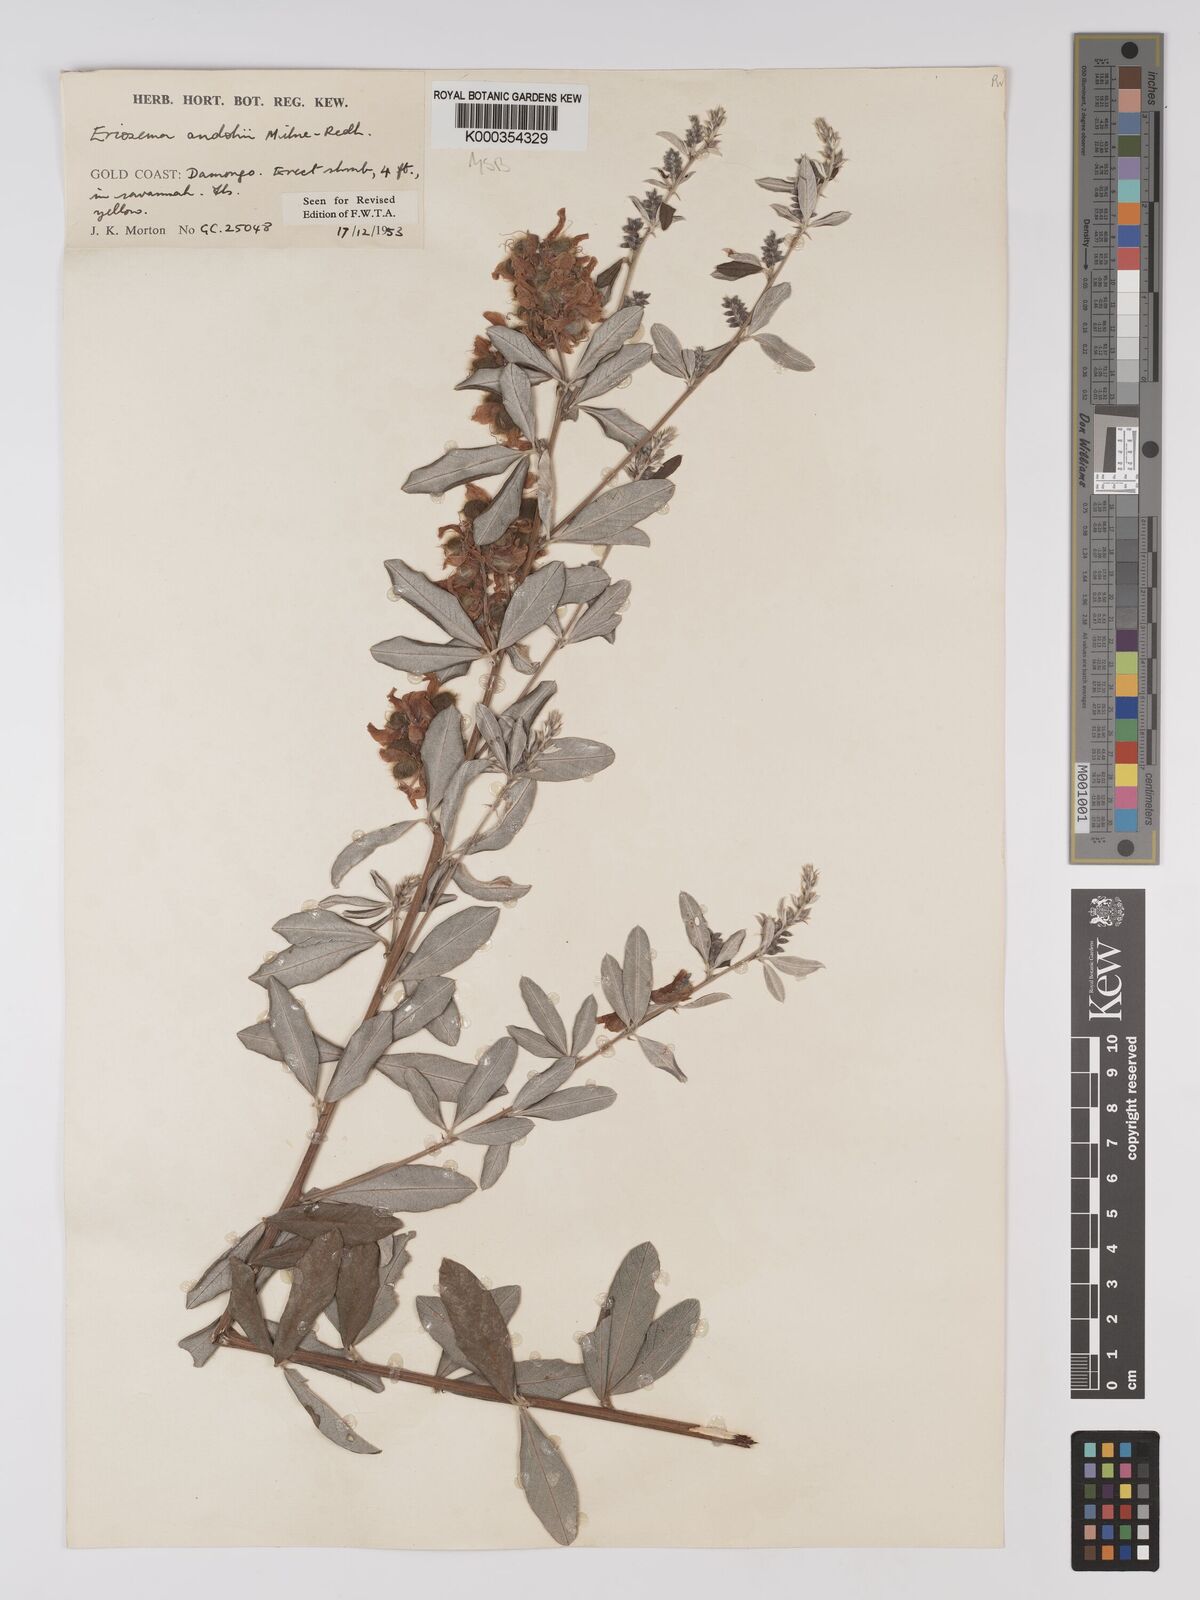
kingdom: Plantae
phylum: Tracheophyta
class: Magnoliopsida
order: Fabales
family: Fabaceae
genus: Eriosema
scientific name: Eriosema andohii
